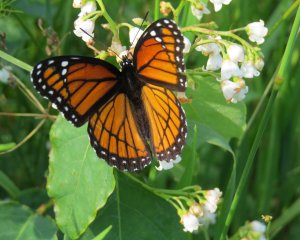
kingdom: Animalia
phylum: Arthropoda
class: Insecta
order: Lepidoptera
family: Nymphalidae
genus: Limenitis
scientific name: Limenitis archippus
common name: Viceroy
